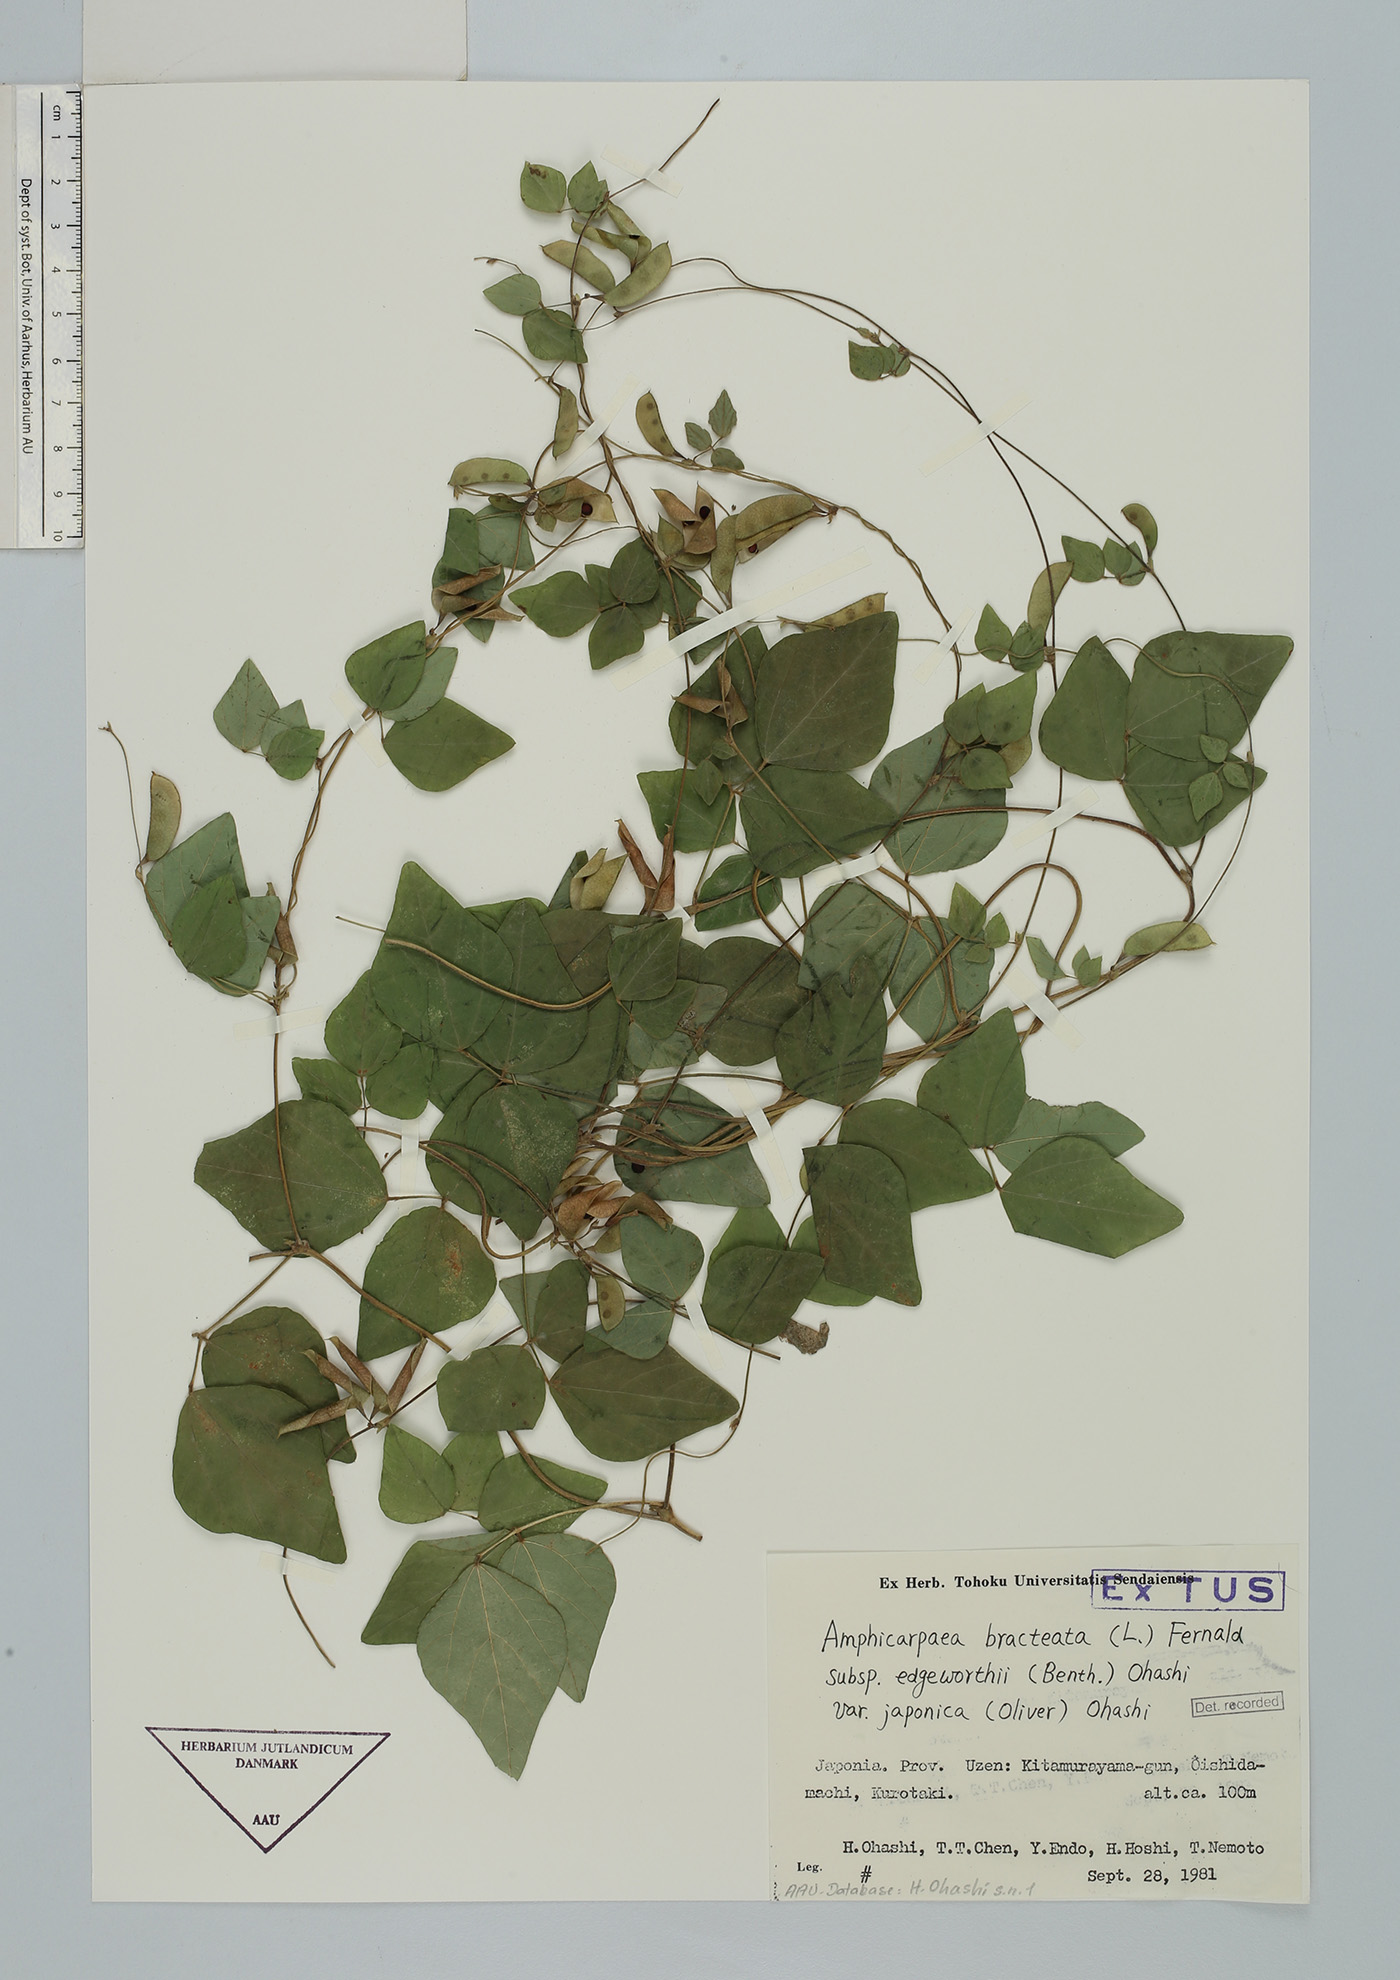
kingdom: Plantae
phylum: Tracheophyta
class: Magnoliopsida
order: Fabales
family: Fabaceae
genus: Amphicarpaea
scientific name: Amphicarpaea edgeworthii
